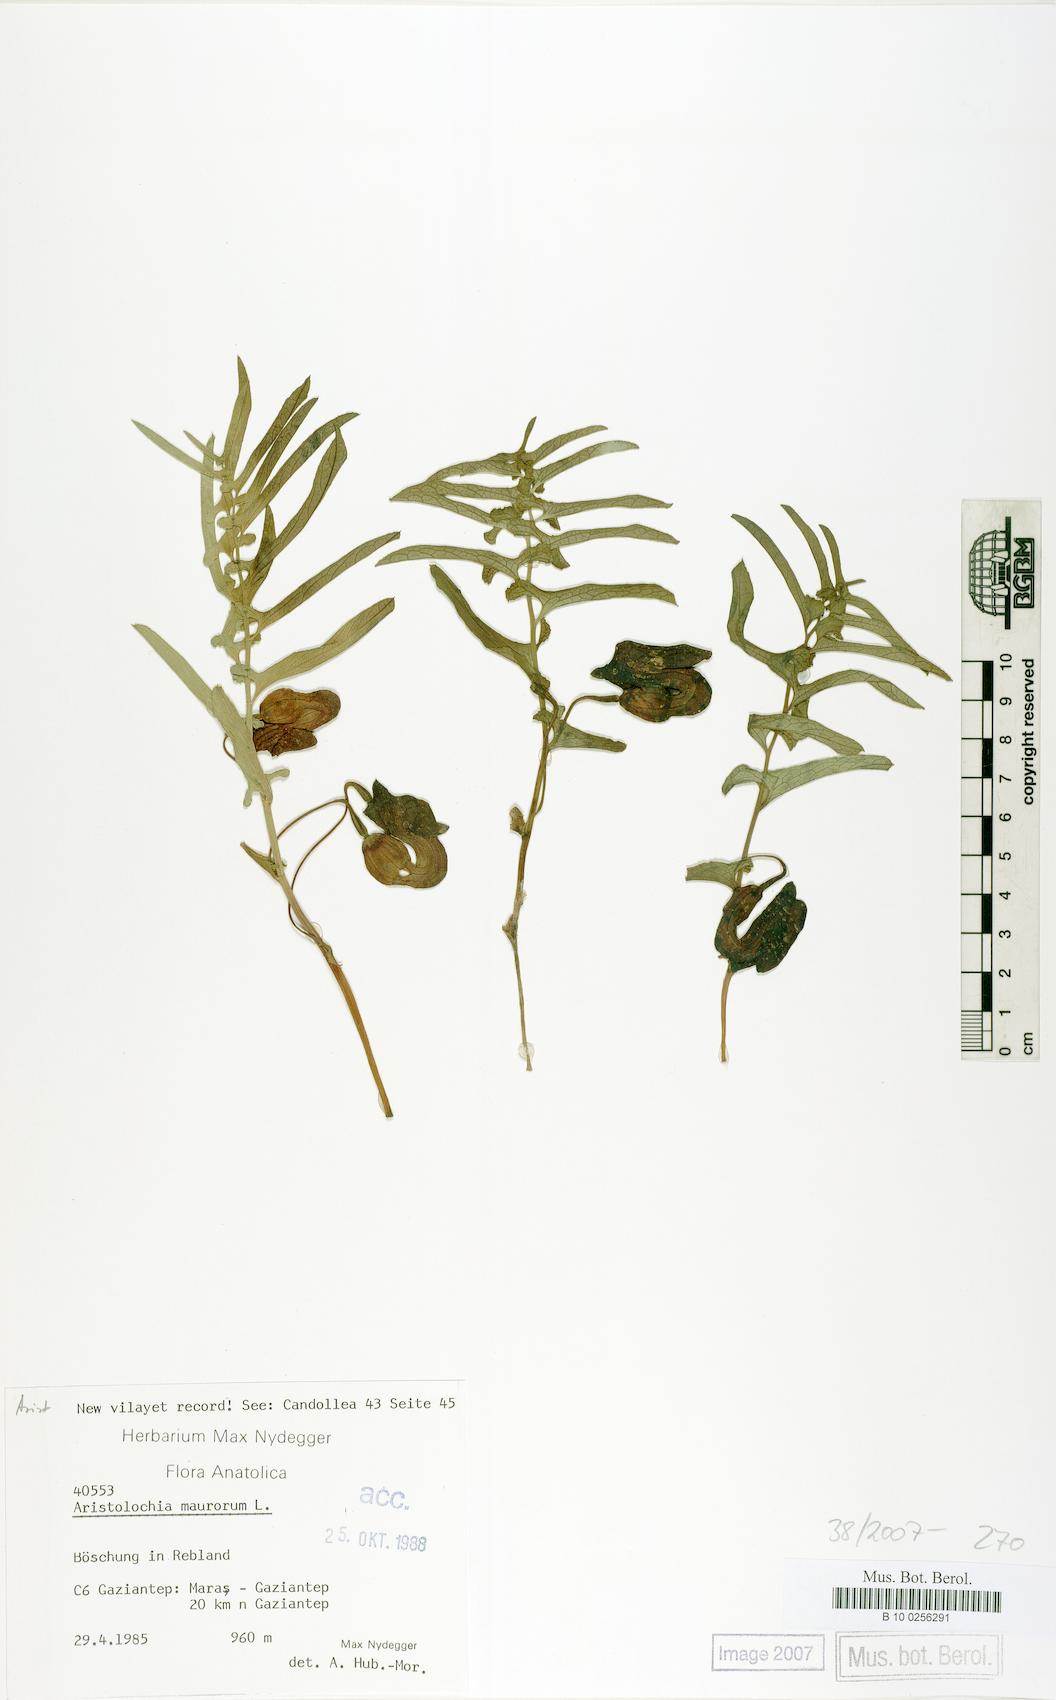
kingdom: Plantae
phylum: Tracheophyta
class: Magnoliopsida
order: Piperales
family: Aristolochiaceae
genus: Aristolochia
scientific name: Aristolochia maurorum
